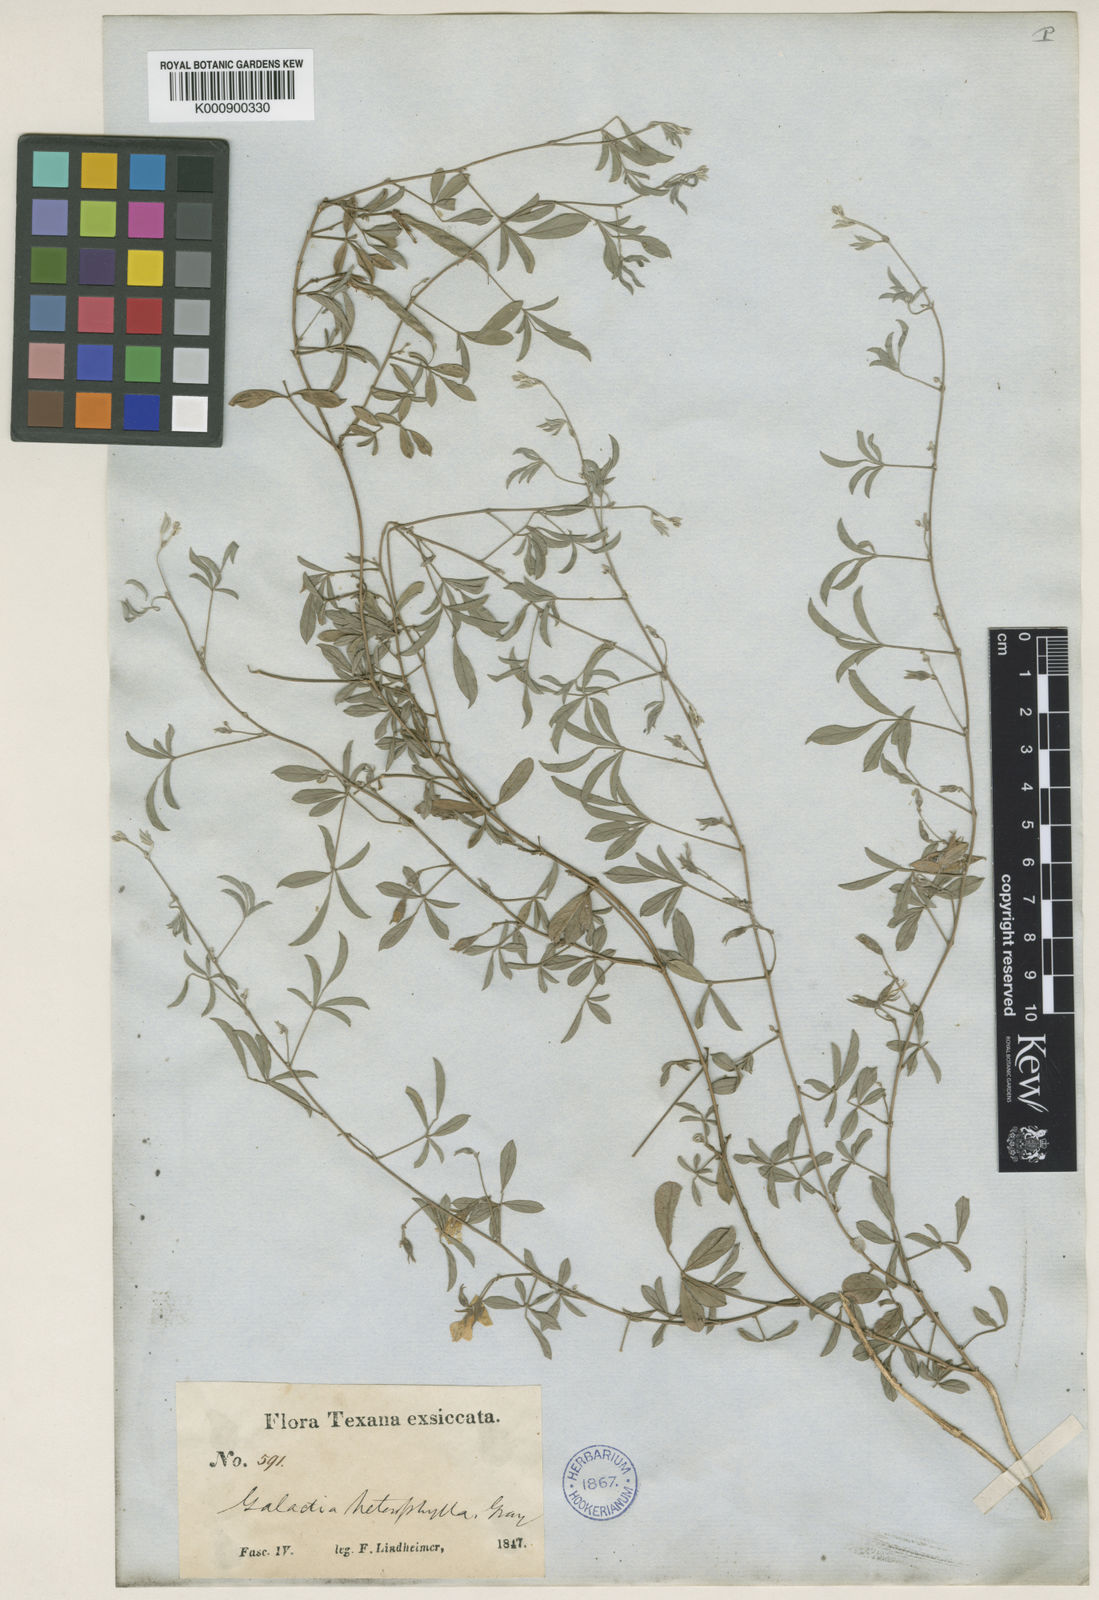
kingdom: Plantae
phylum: Tracheophyta
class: Magnoliopsida
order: Fabales
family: Fabaceae
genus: Galactia
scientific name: Galactia heterophylla
